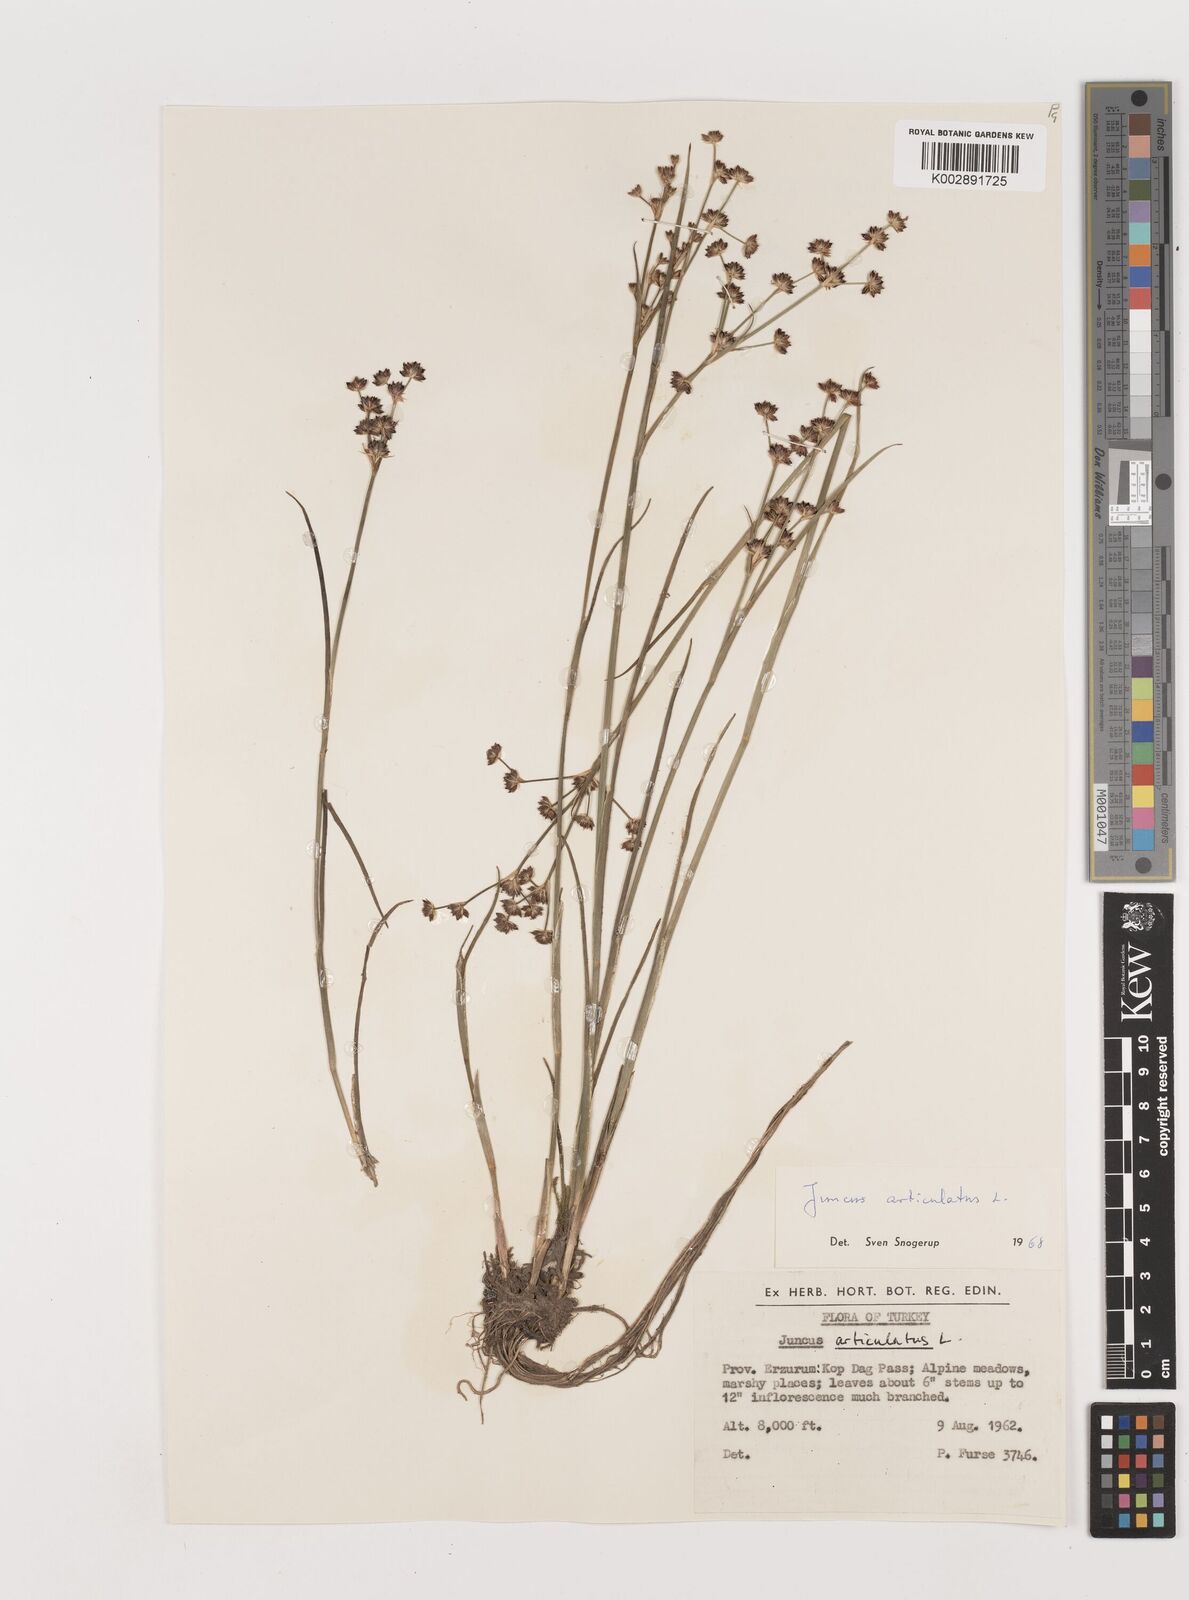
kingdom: Plantae
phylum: Tracheophyta
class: Liliopsida
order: Poales
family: Juncaceae
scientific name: Juncaceae
